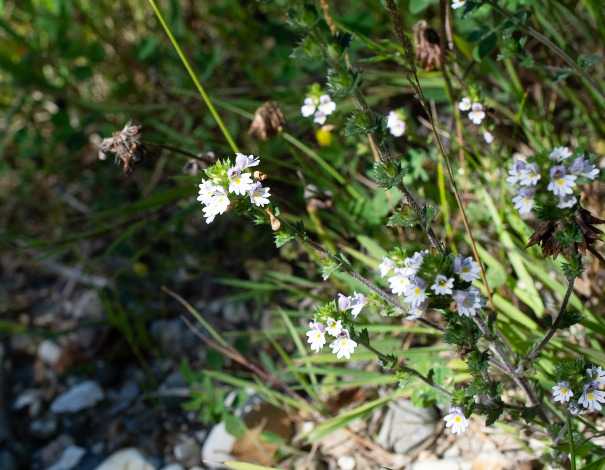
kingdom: Plantae
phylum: Tracheophyta
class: Magnoliopsida
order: Lamiales
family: Orobanchaceae
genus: Euphrasia
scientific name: Euphrasia stricta
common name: Spids øjentrøst
